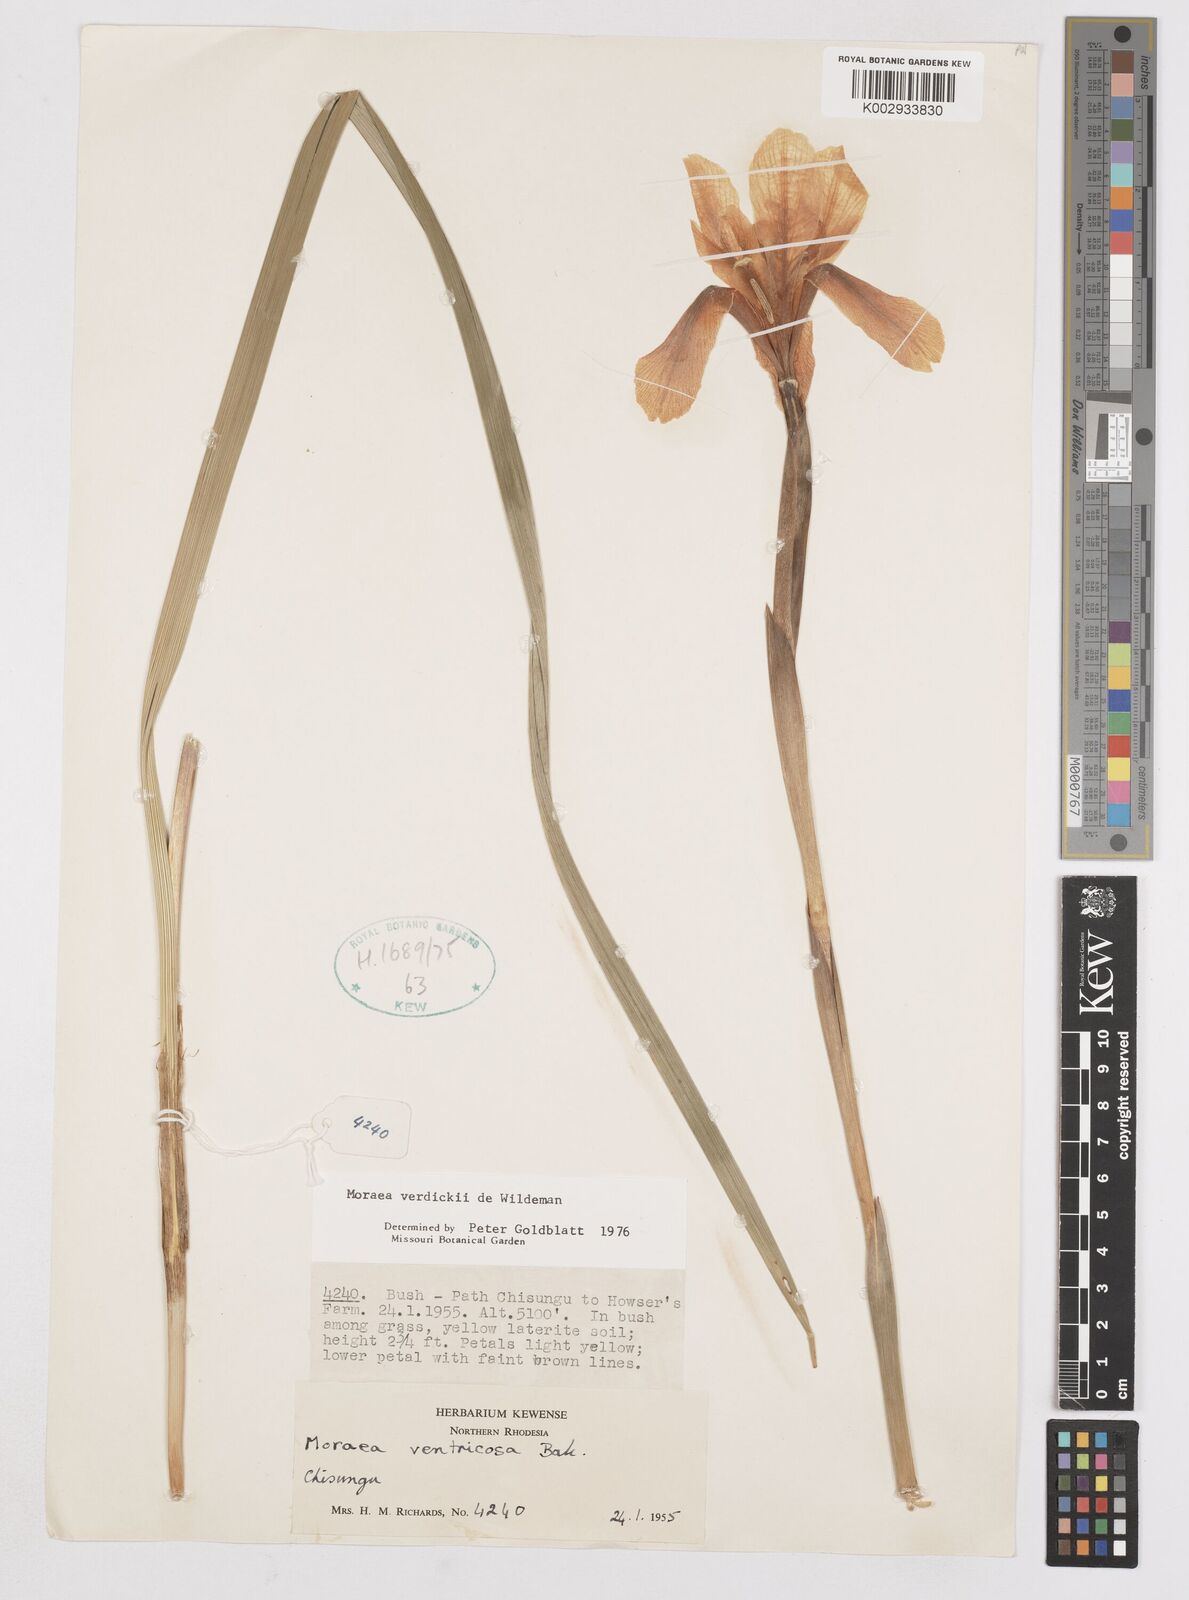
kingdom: Plantae
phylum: Tracheophyta
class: Liliopsida
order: Asparagales
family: Iridaceae
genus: Moraea
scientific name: Moraea verdickii
